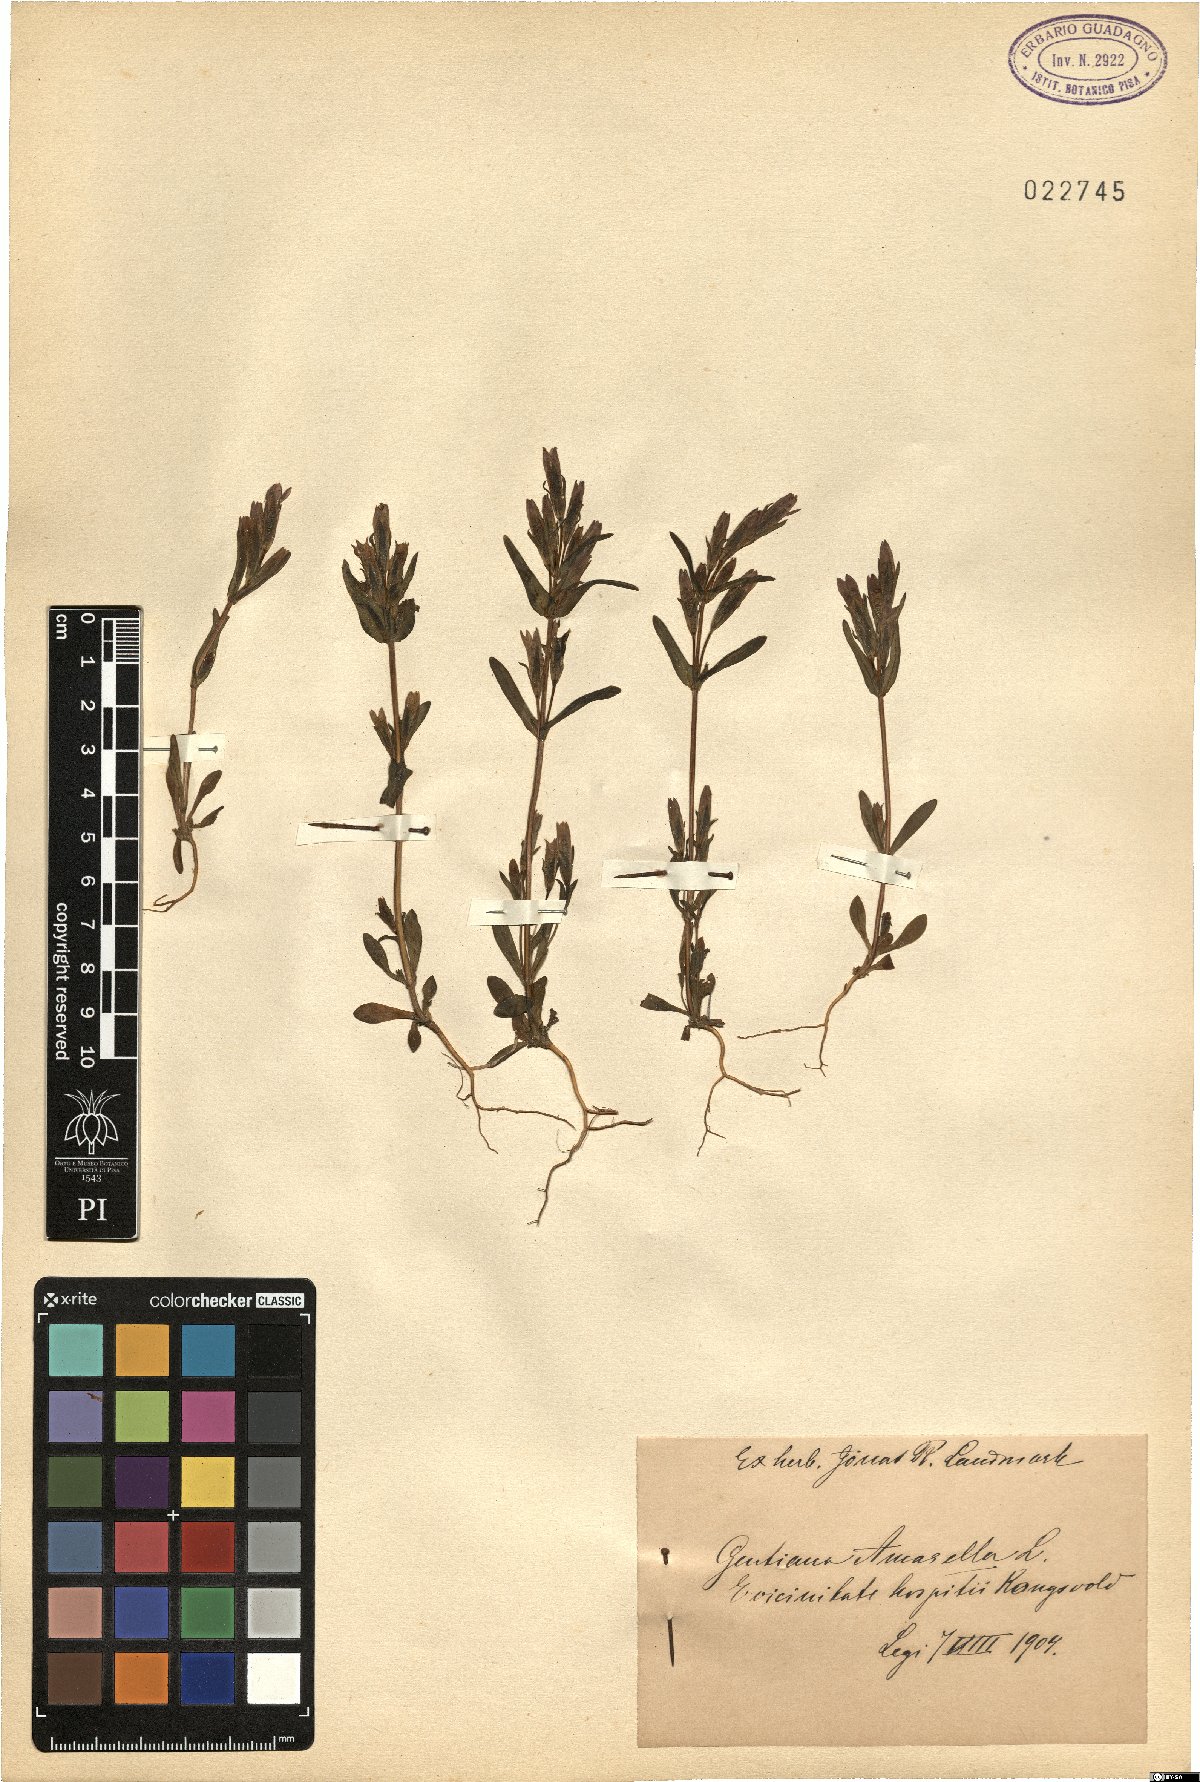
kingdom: Plantae
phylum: Tracheophyta
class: Magnoliopsida
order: Gentianales
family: Gentianaceae
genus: Gentianella
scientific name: Gentianella amarella
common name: Autumn gentian
